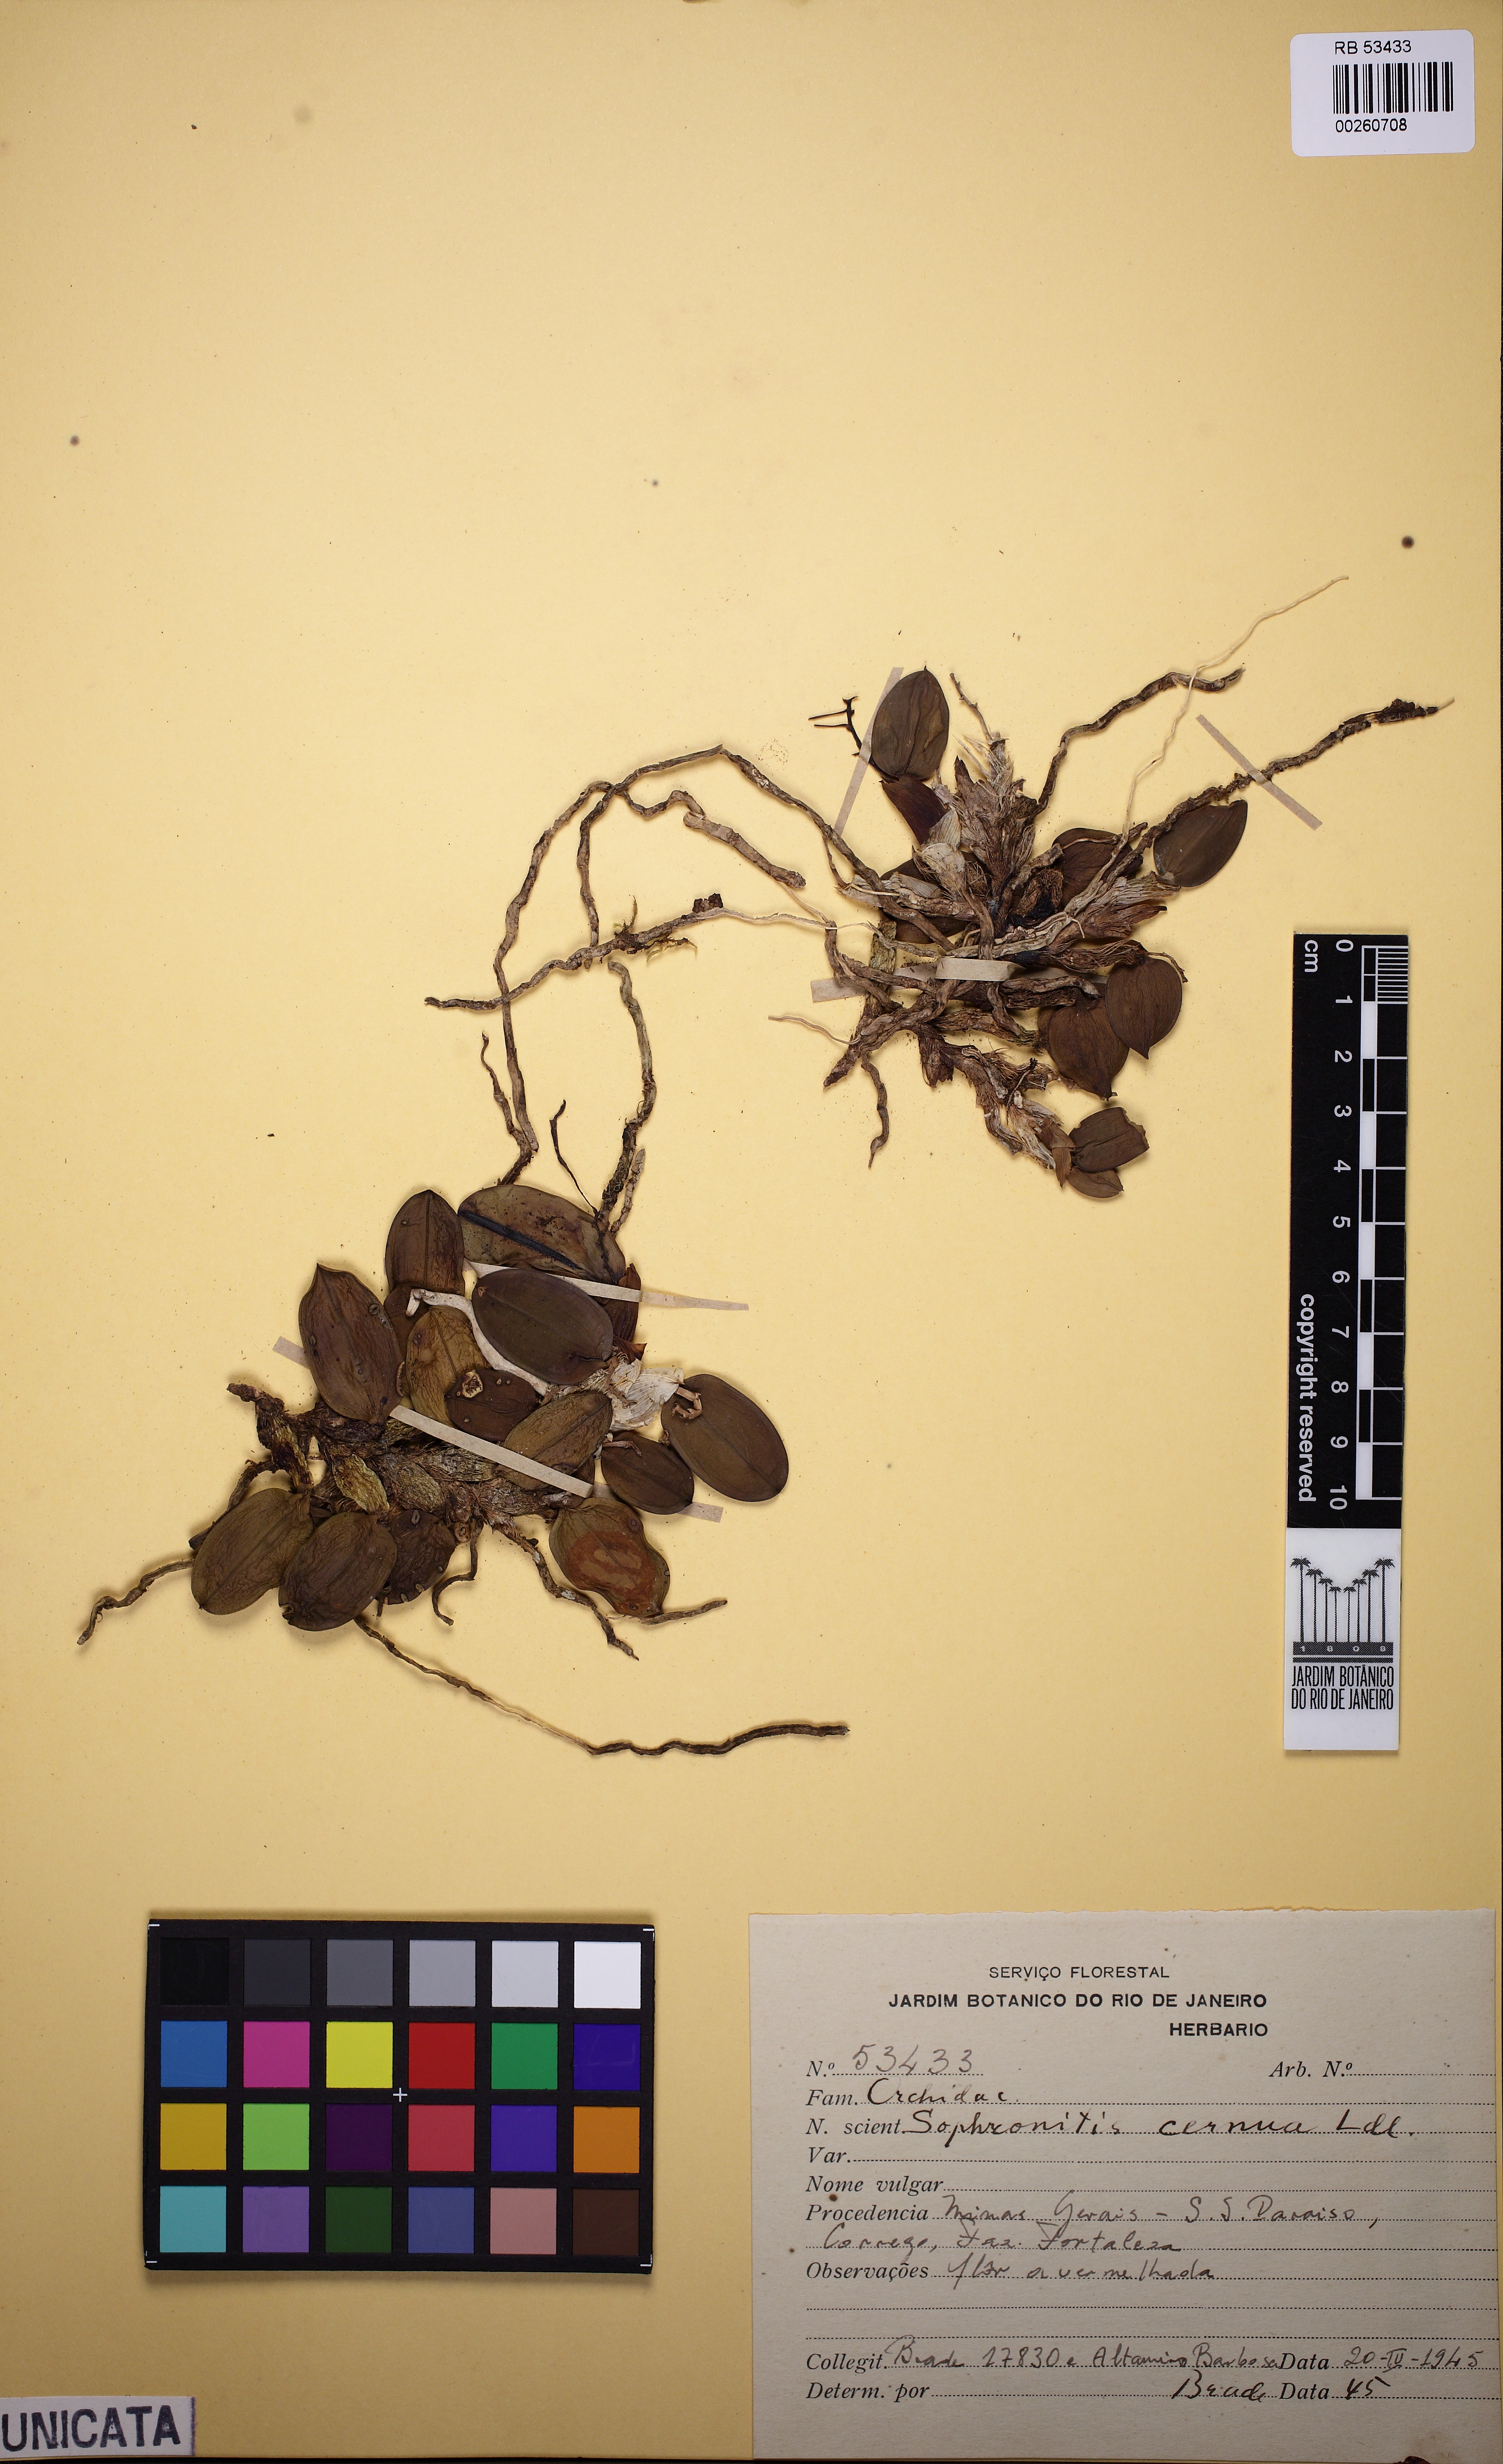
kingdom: Plantae
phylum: Tracheophyta
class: Liliopsida
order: Asparagales
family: Orchidaceae
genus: Cattleya
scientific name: Cattleya cernua
